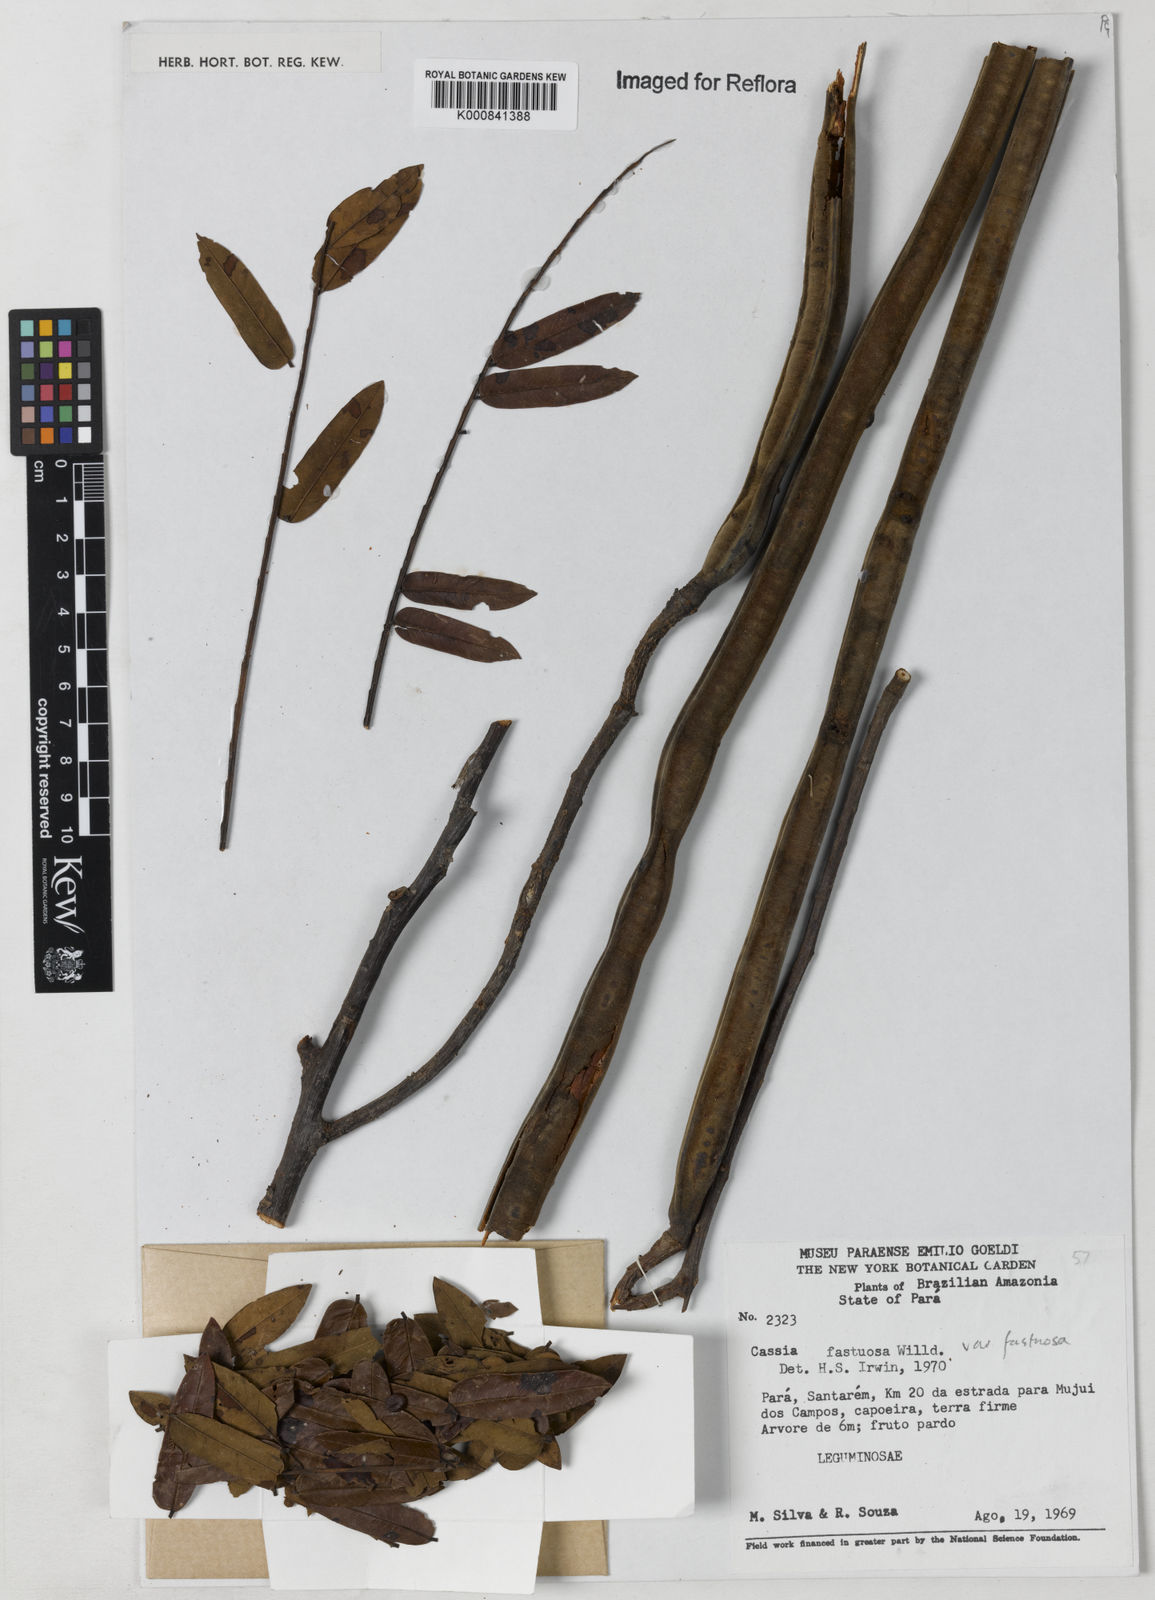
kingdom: Plantae
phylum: Tracheophyta
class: Magnoliopsida
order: Fabales
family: Fabaceae
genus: Cassia
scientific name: Cassia
